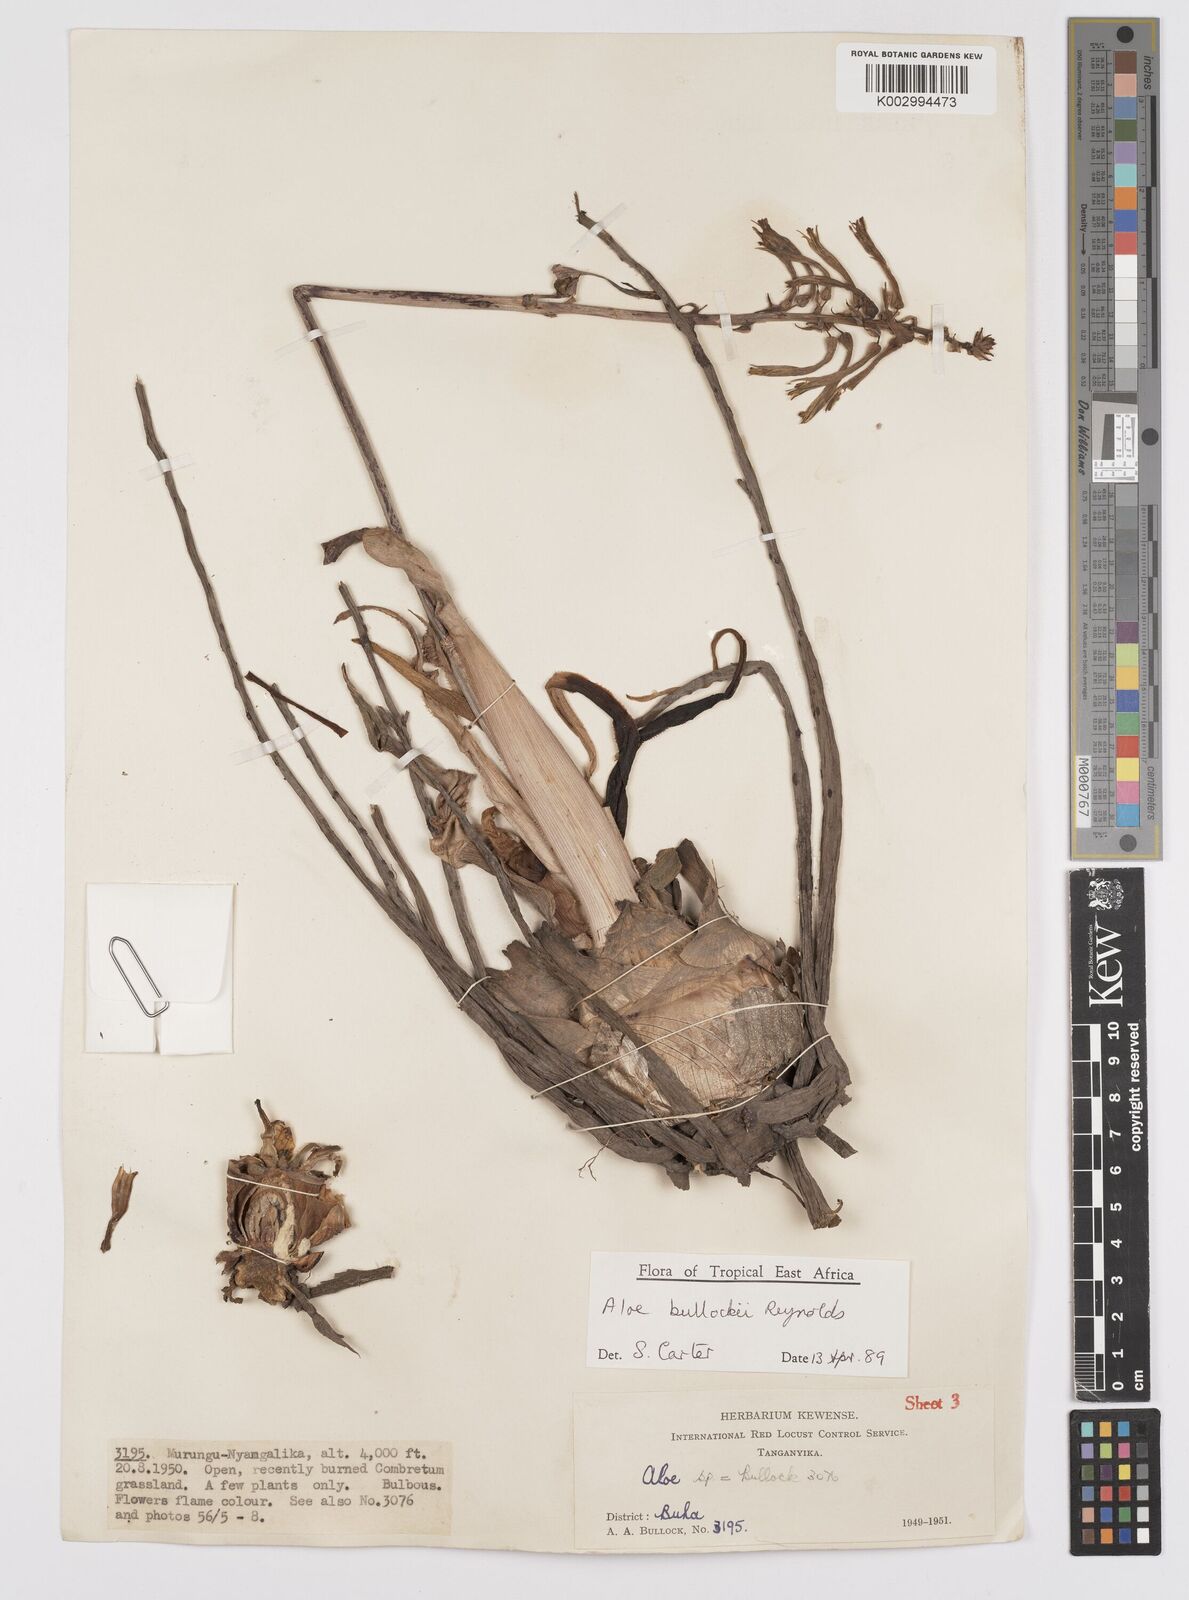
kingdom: Plantae
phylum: Tracheophyta
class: Liliopsida
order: Asparagales
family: Asphodelaceae
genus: Aloe
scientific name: Aloe bullockii
